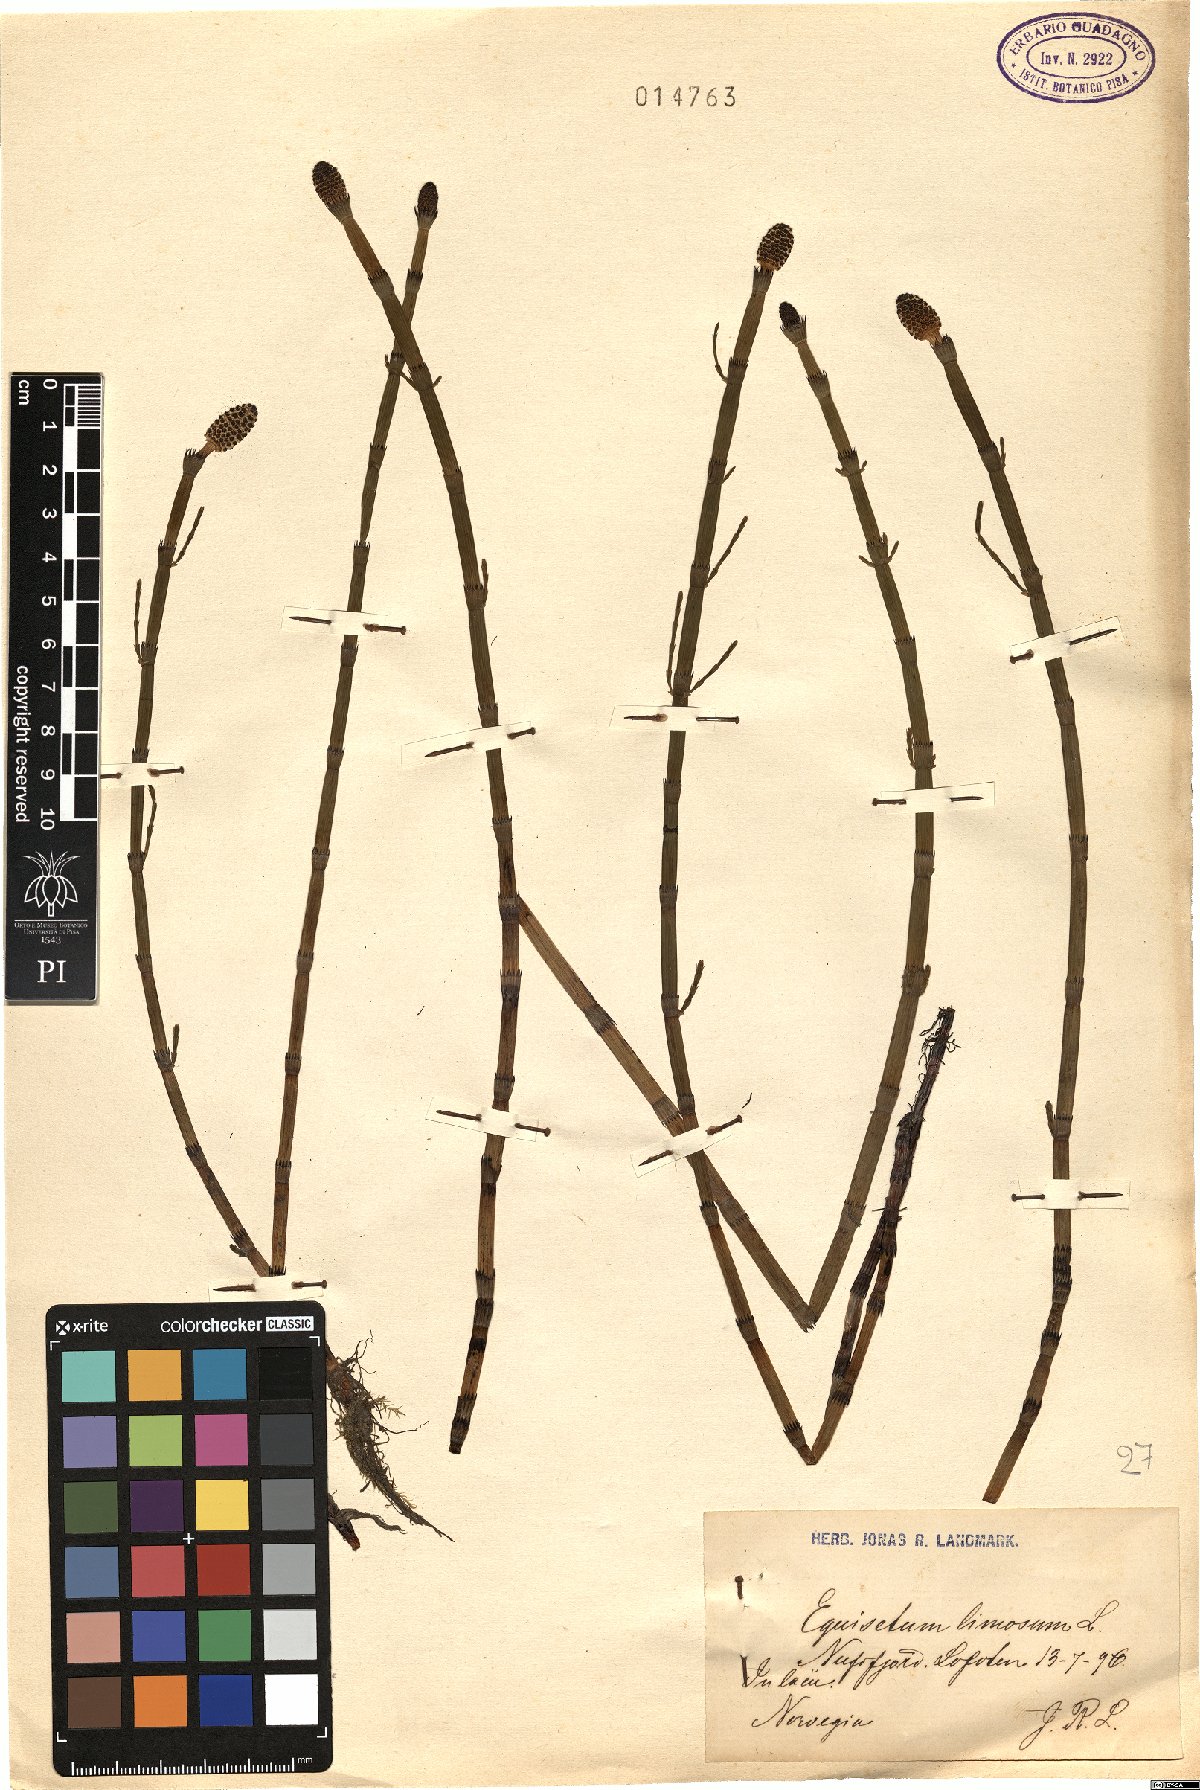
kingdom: Plantae
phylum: Tracheophyta
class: Polypodiopsida
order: Equisetales
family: Equisetaceae
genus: Equisetum
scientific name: Equisetum fluviatile
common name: Water horsetail
